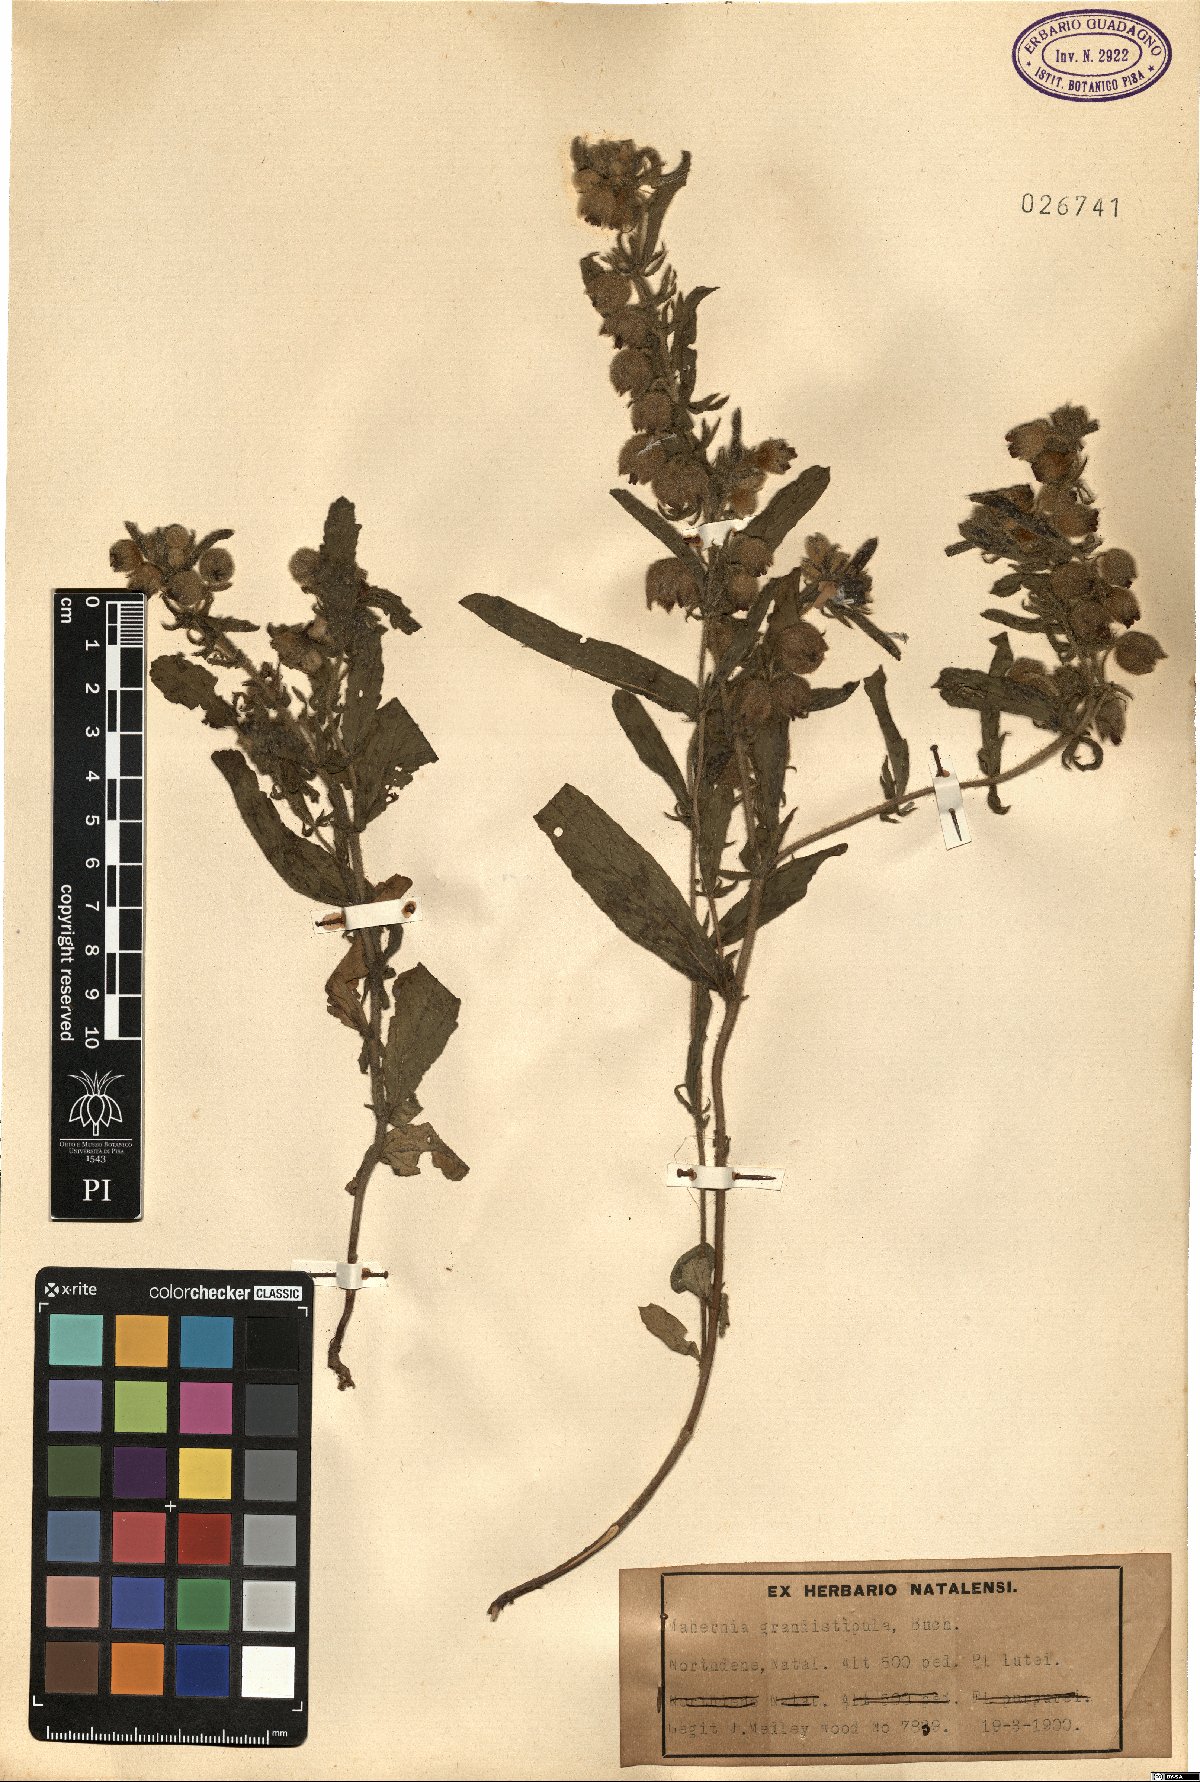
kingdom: Plantae
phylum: Tracheophyta
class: Magnoliopsida
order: Malvales
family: Malvaceae
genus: Hermannia
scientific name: Hermannia grandistipula
